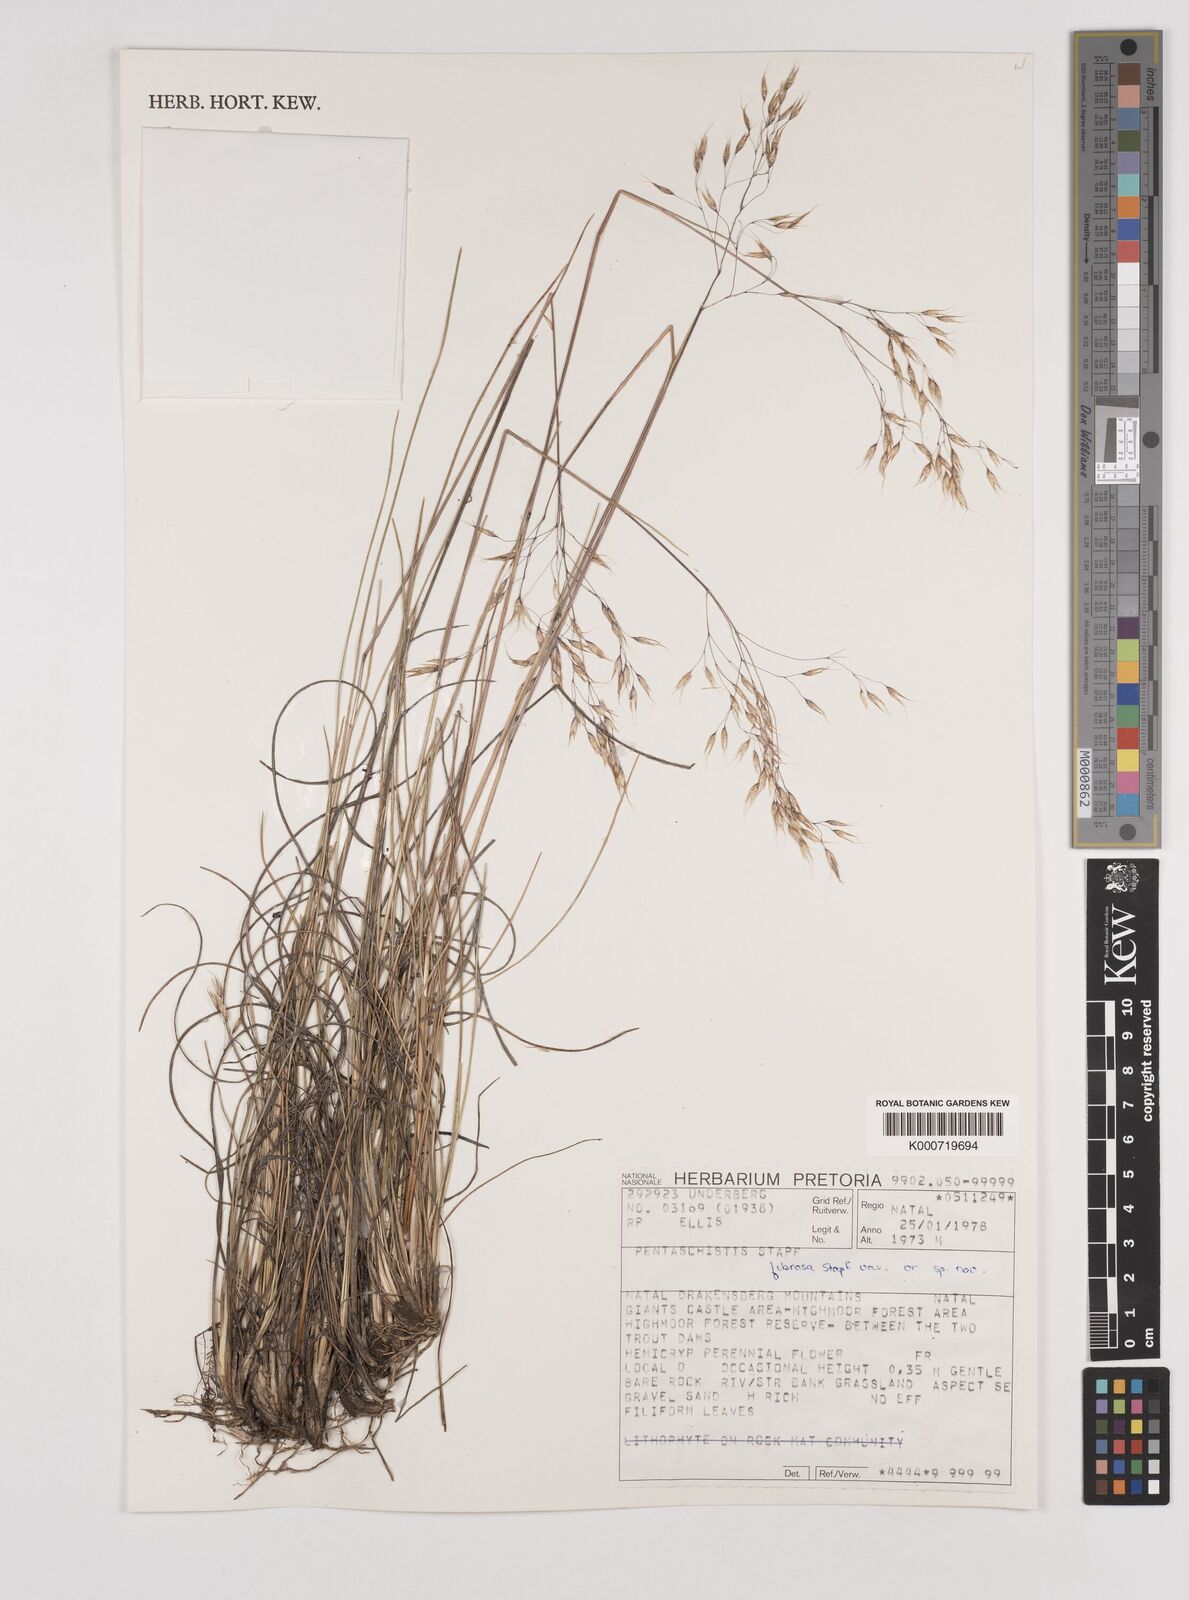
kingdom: Plantae
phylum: Tracheophyta
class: Liliopsida
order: Poales
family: Poaceae
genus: Pentameris
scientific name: Pentameris tysonii
